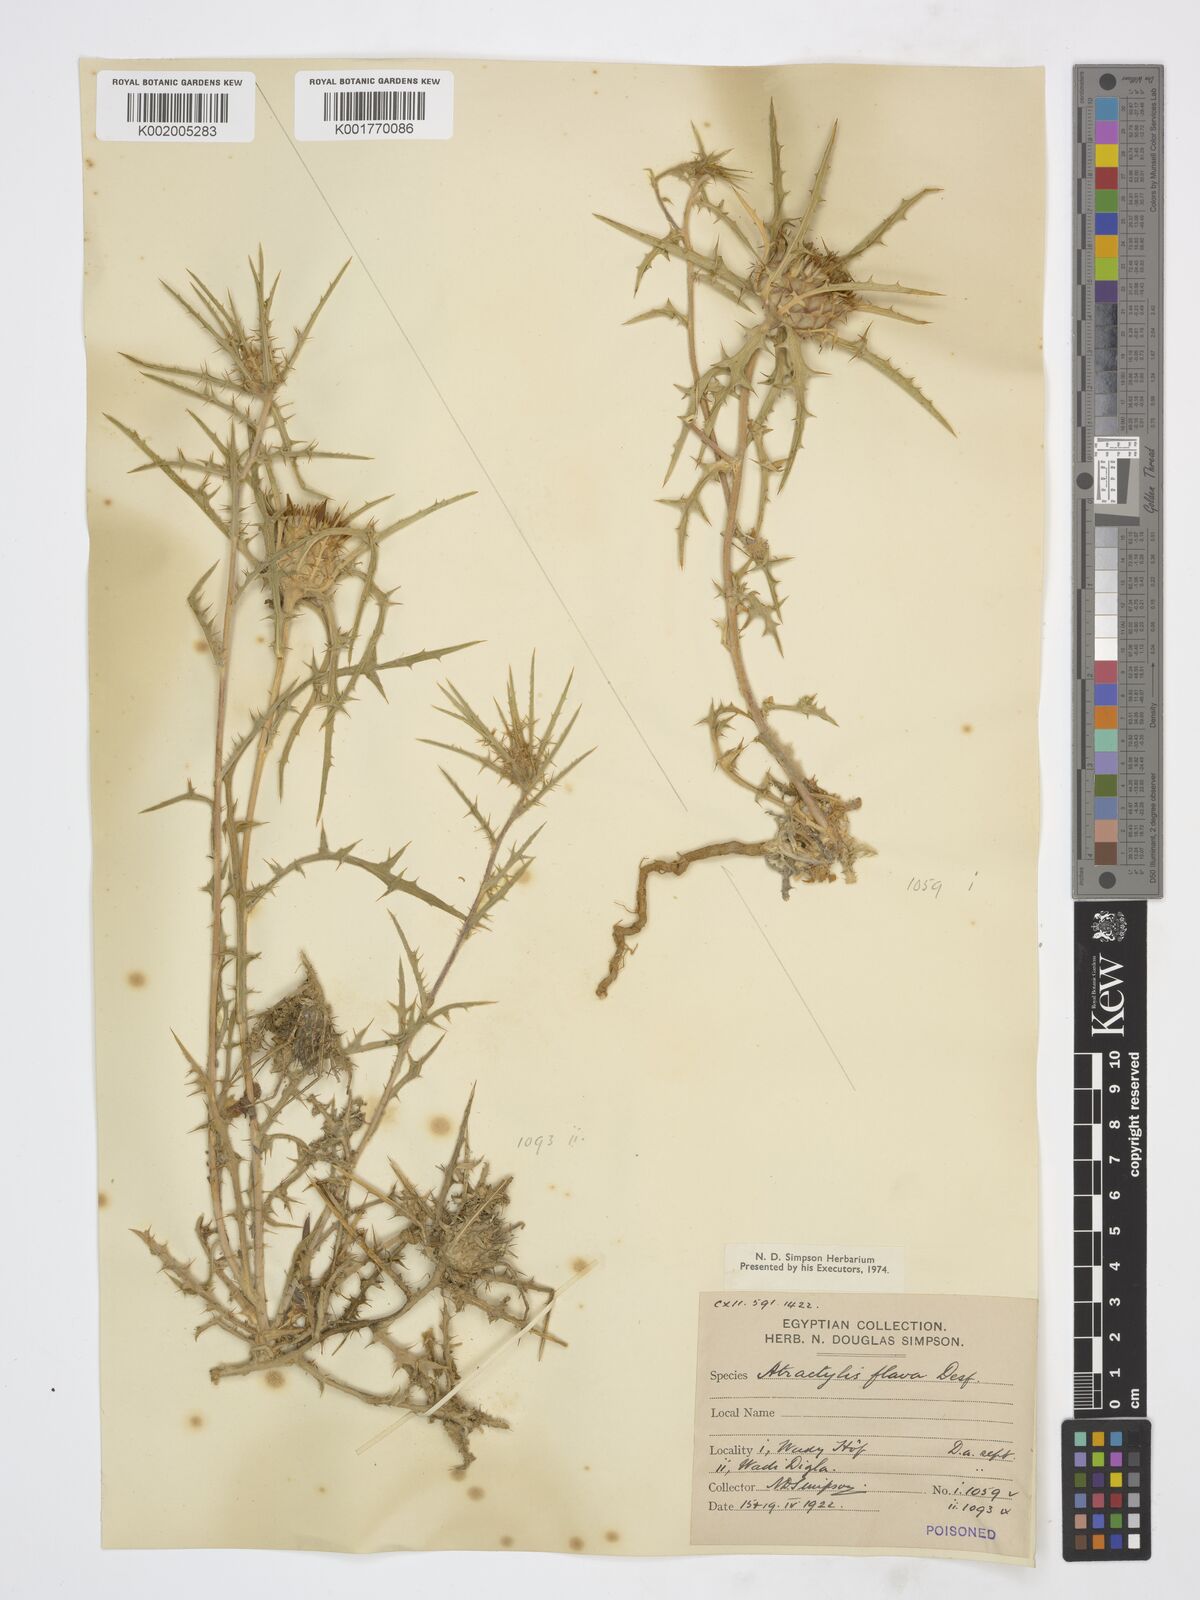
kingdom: Plantae
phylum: Tracheophyta
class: Magnoliopsida
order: Asterales
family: Asteraceae
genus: Atractylis
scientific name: Atractylis carduus
